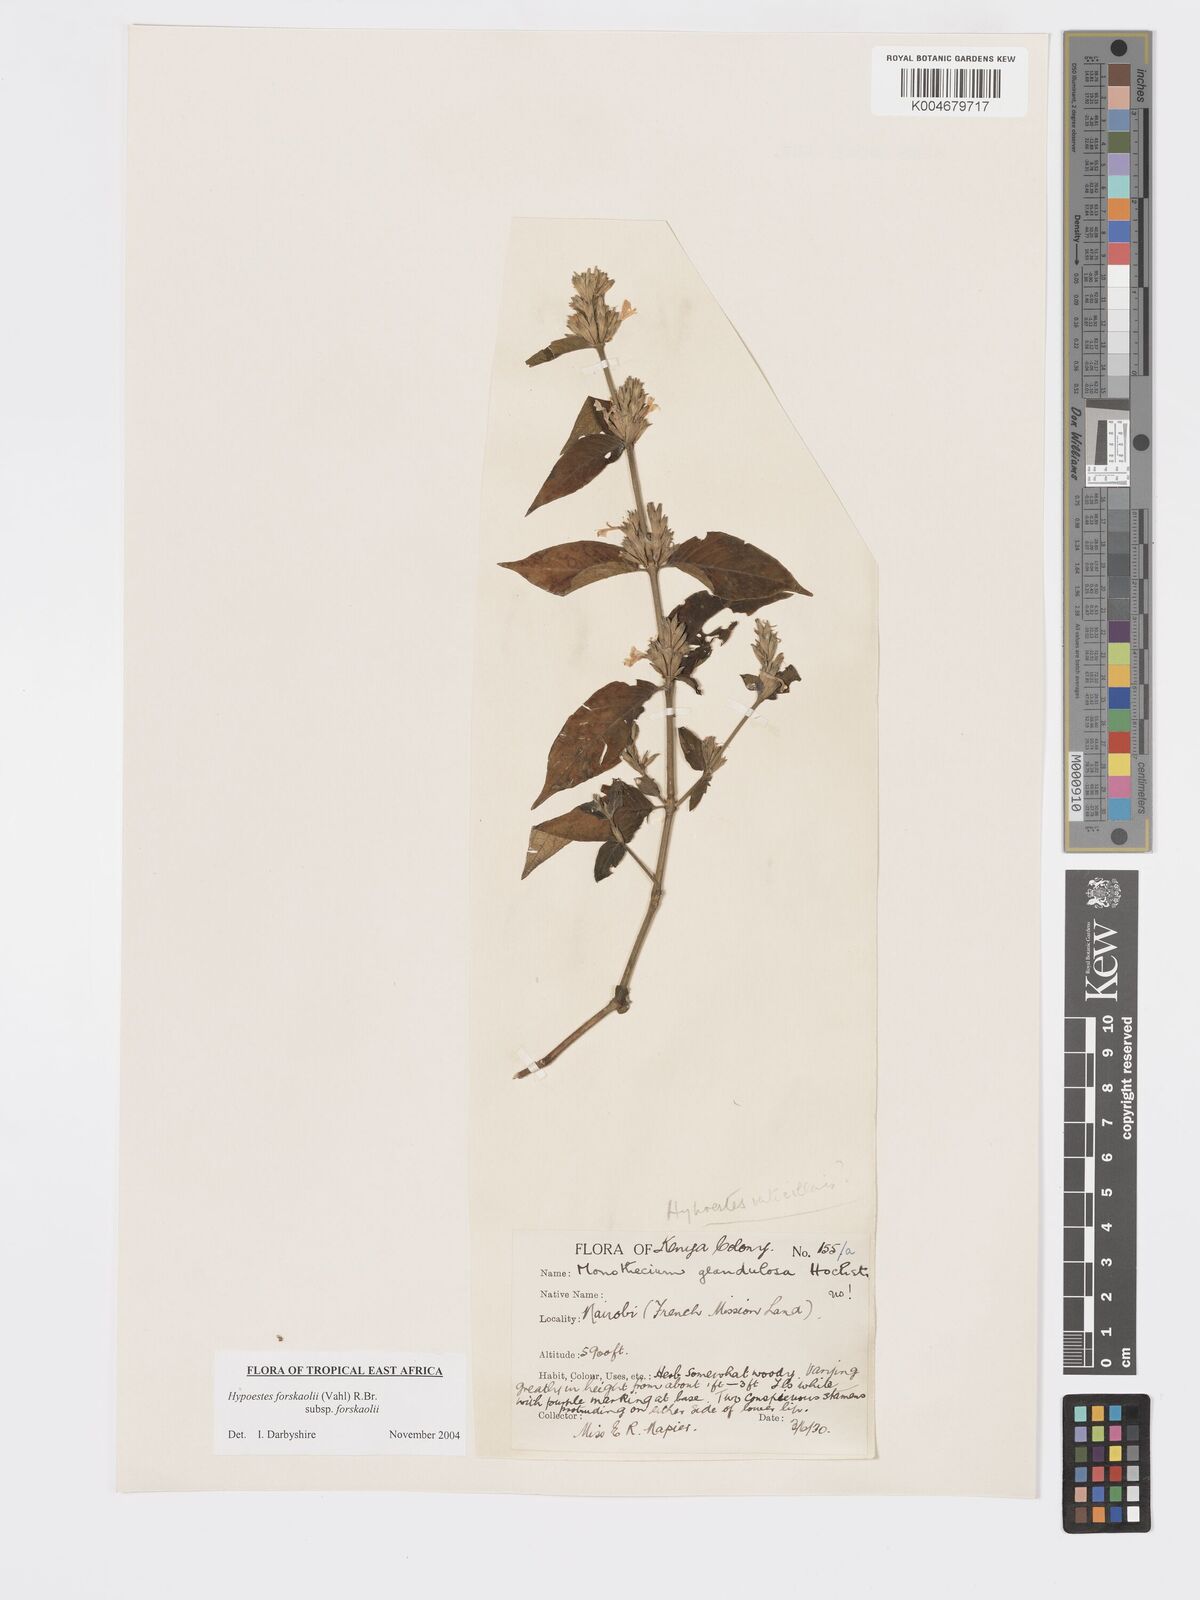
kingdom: Plantae
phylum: Tracheophyta
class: Magnoliopsida
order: Lamiales
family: Acanthaceae
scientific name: Acanthaceae
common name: Acanthaceae
